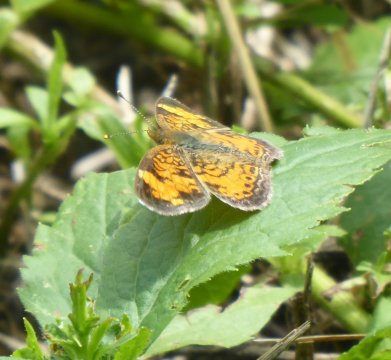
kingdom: Animalia
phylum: Arthropoda
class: Insecta
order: Lepidoptera
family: Nymphalidae
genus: Phyciodes
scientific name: Phyciodes
